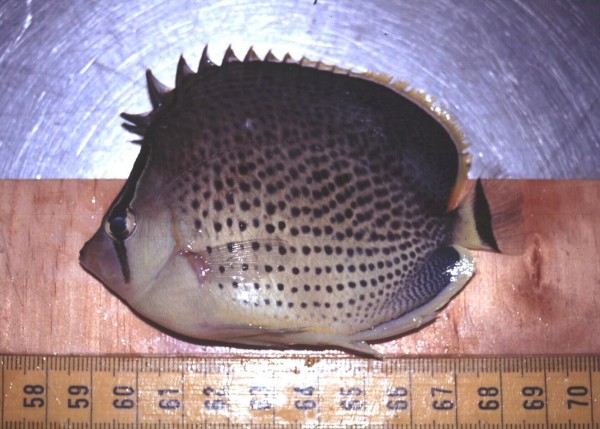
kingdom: Animalia
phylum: Chordata
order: Perciformes
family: Chaetodontidae
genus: Chaetodon
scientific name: Chaetodon guttatissimus
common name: Spotted butterflyfish
